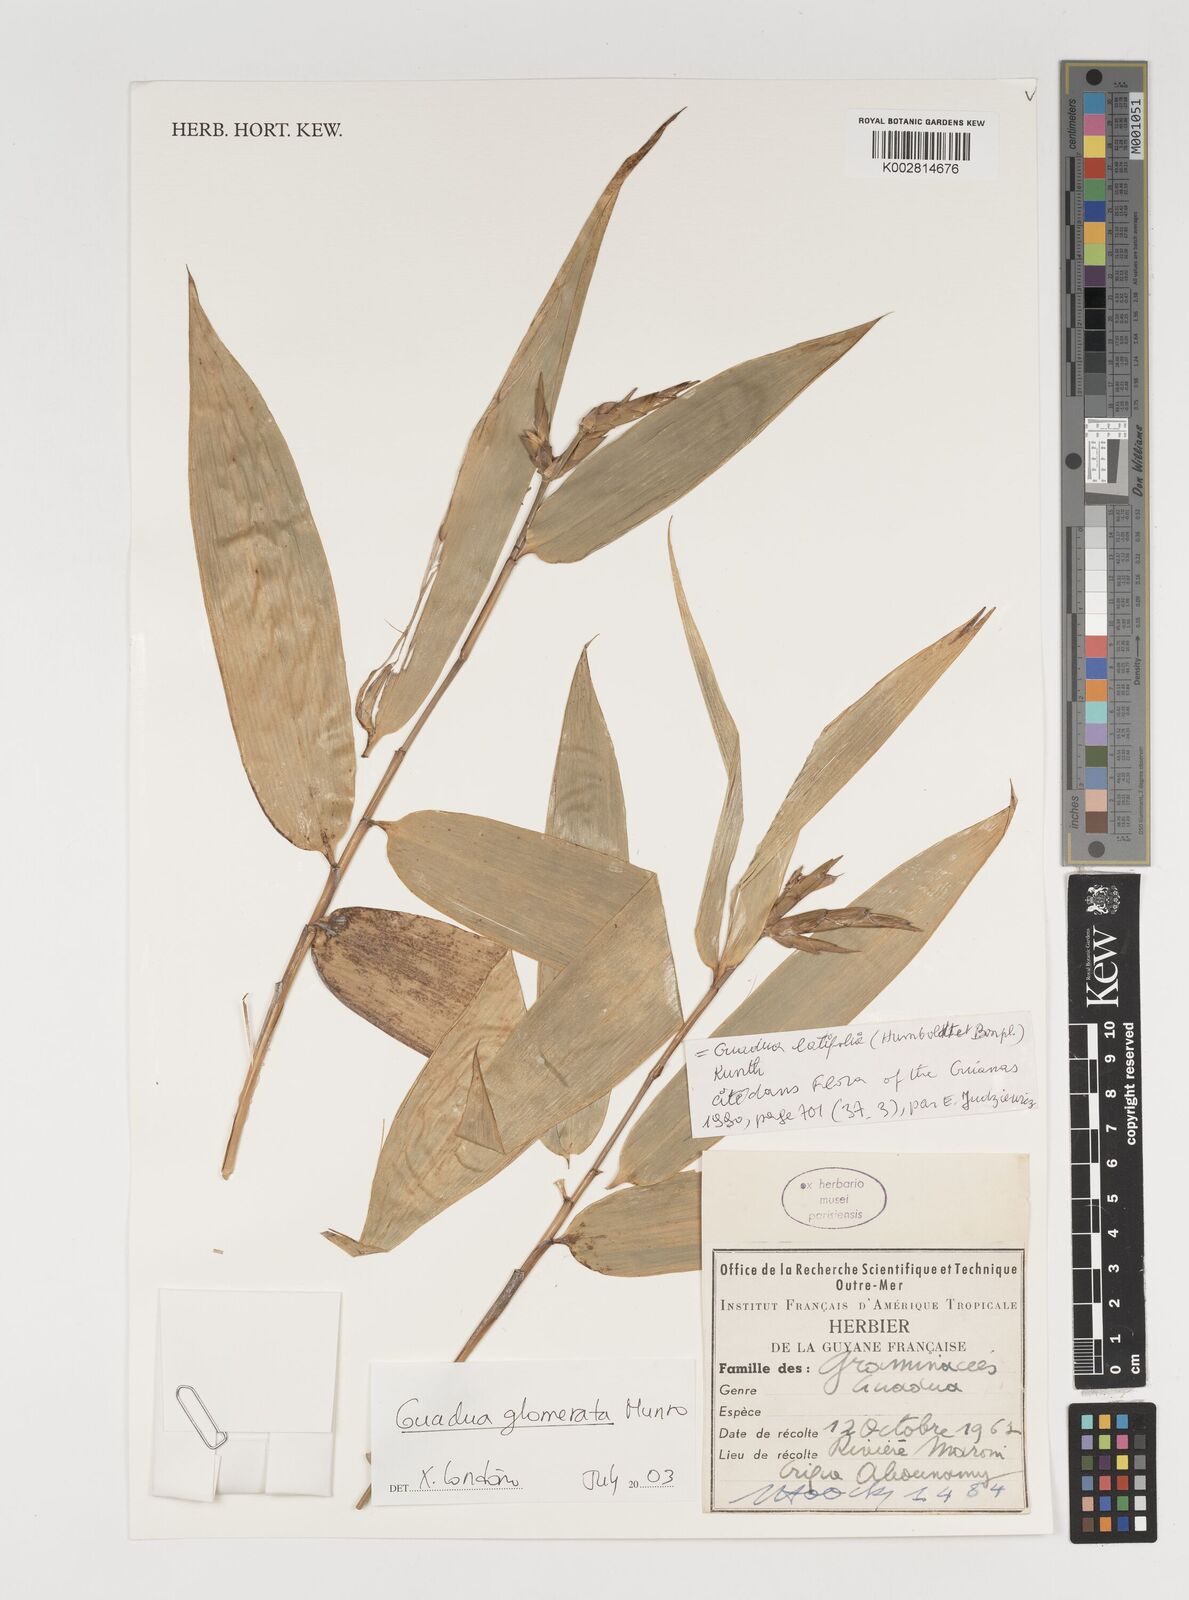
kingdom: Plantae
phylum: Tracheophyta
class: Liliopsida
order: Poales
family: Poaceae
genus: Guadua
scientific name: Guadua glomerata
